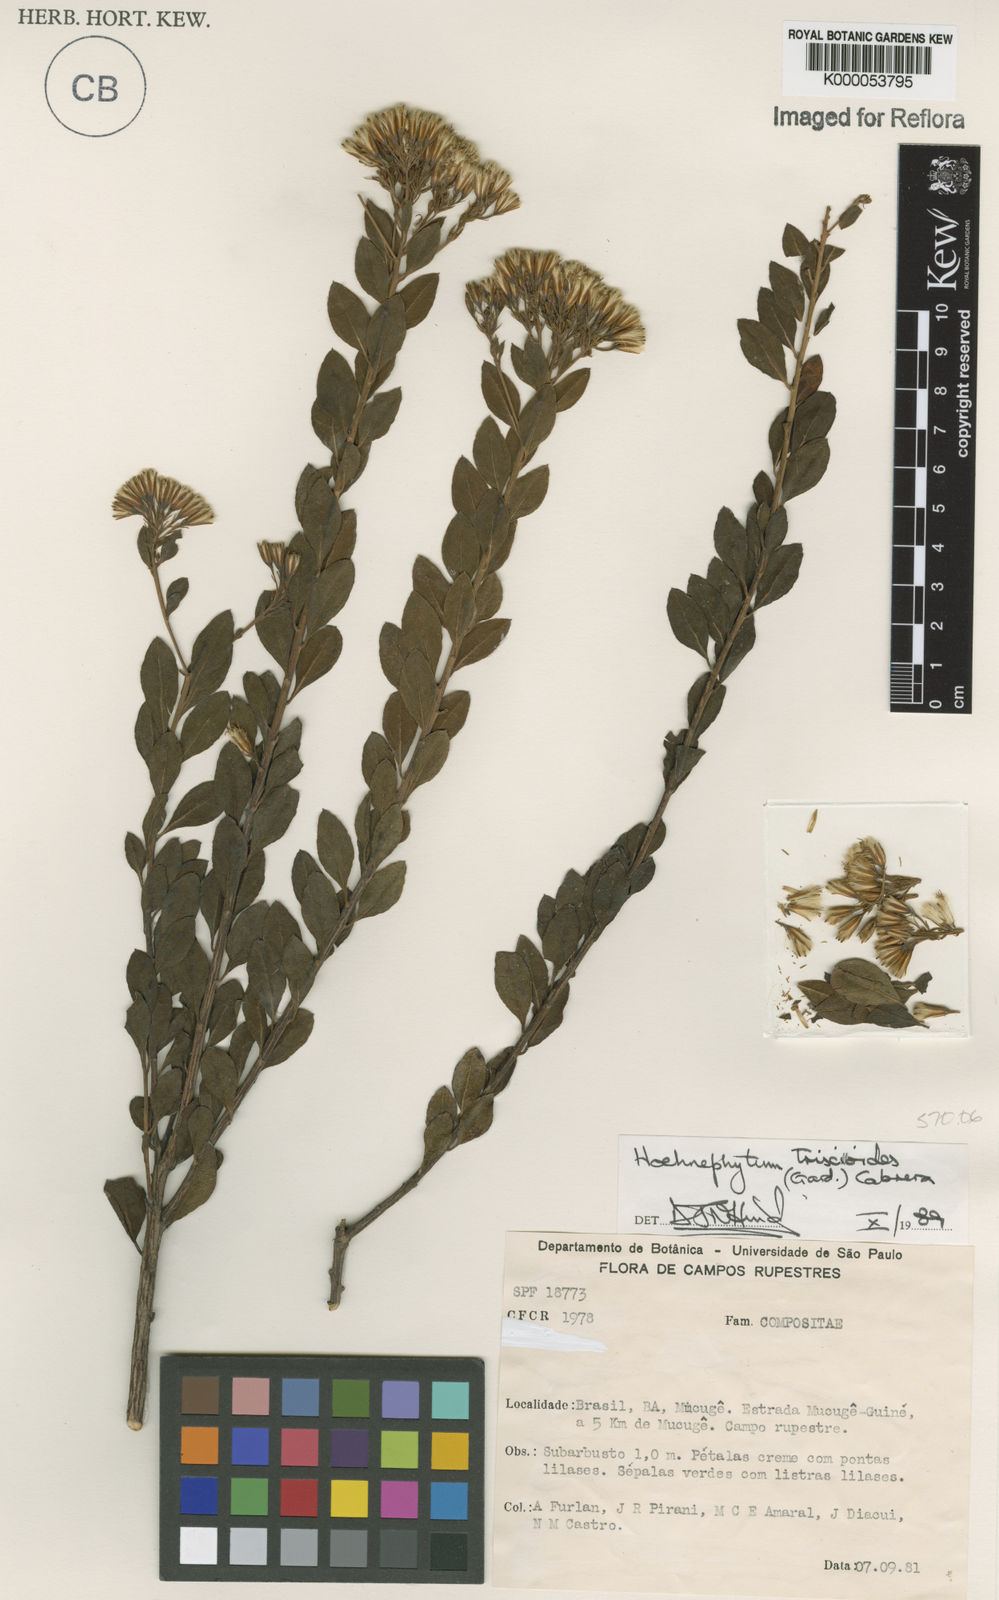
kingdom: Plantae
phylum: Tracheophyta
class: Magnoliopsida
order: Asterales
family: Asteraceae
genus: Hoehnephytum
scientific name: Hoehnephytum trixoides
